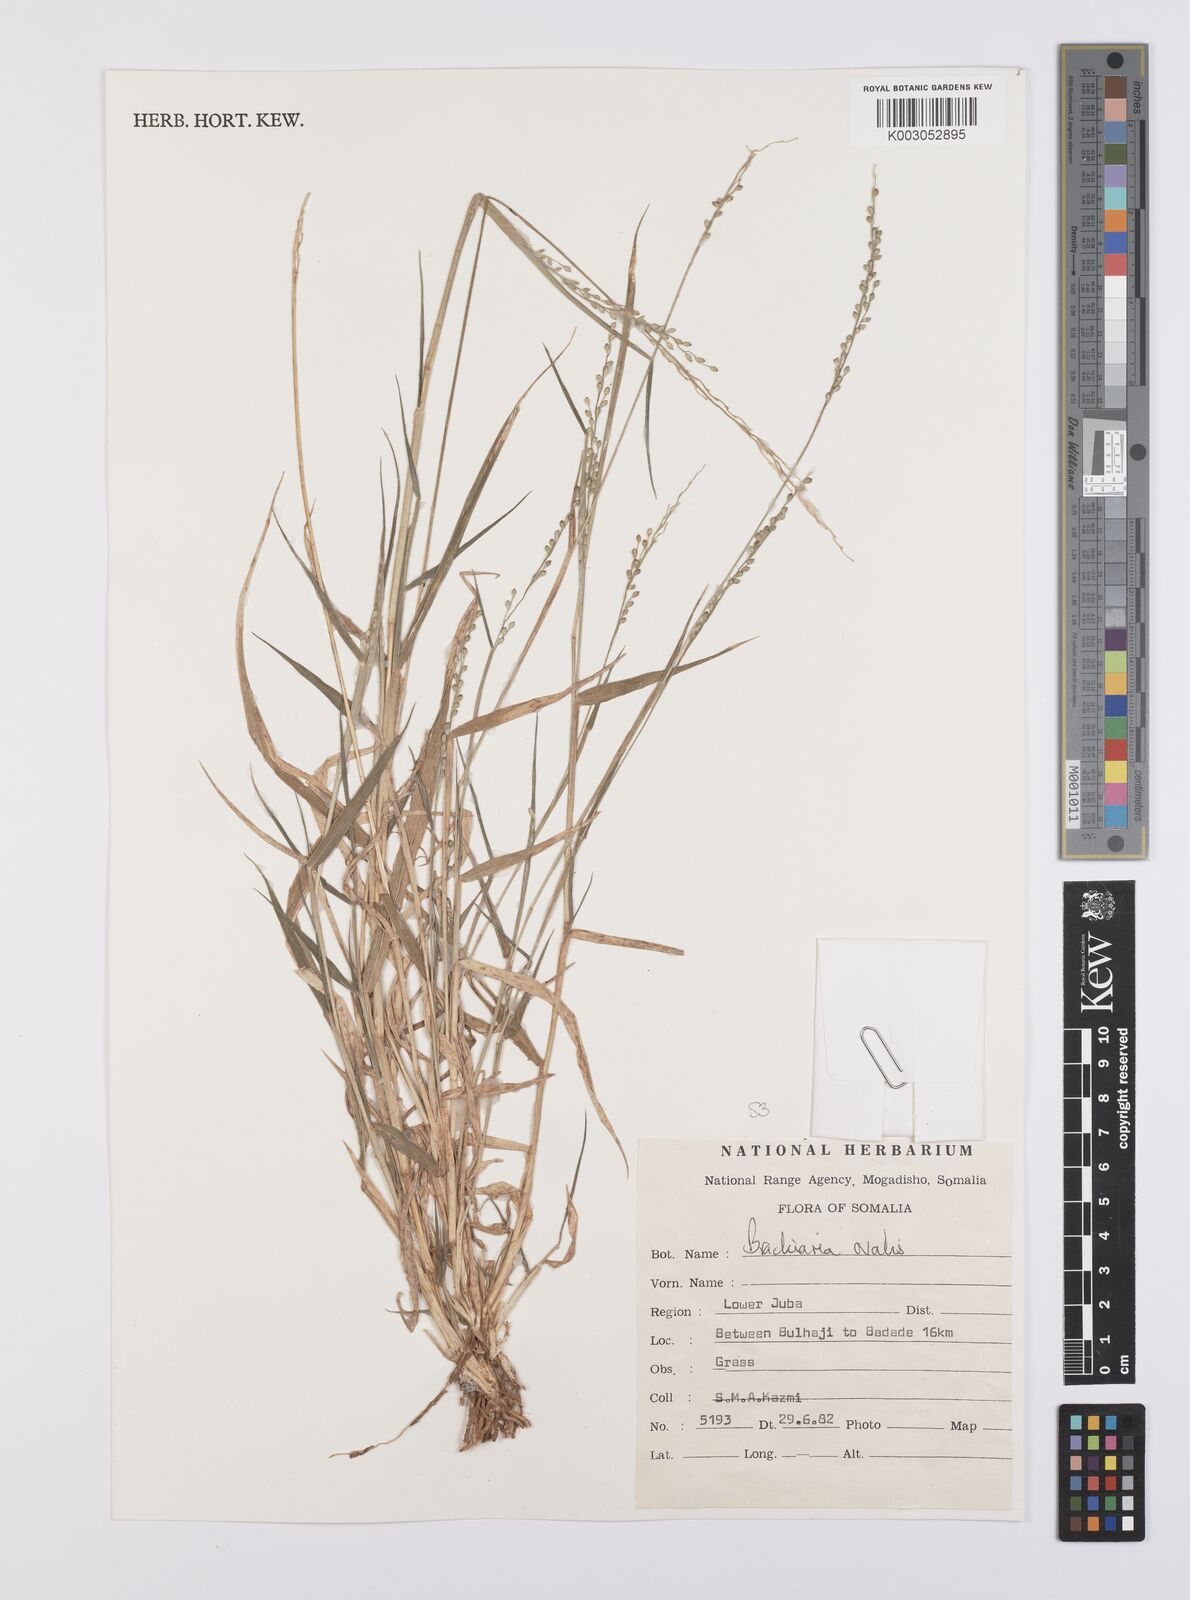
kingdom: Plantae
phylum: Tracheophyta
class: Liliopsida
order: Poales
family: Poaceae
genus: Urochloa
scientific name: Urochloa ovalis
